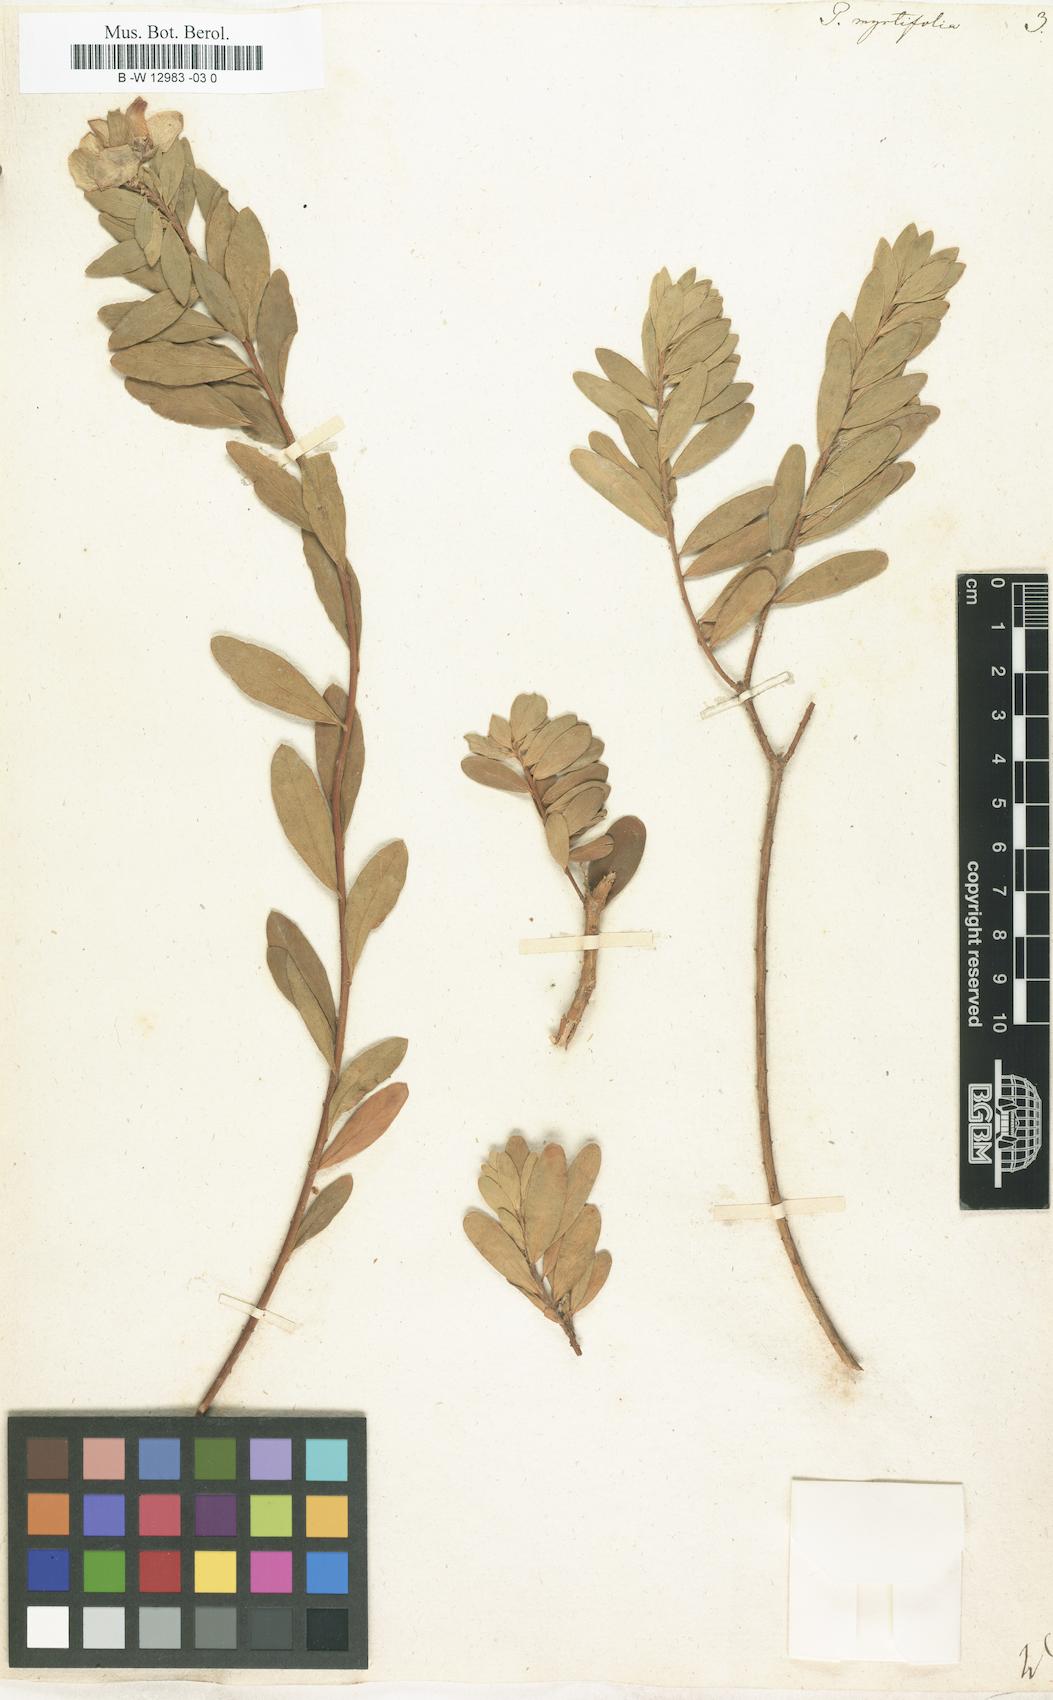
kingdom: Plantae
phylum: Tracheophyta
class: Magnoliopsida
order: Fabales
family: Polygalaceae
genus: Polygala
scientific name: Polygala myrtifolia
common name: Myrtle-leaf milkwort
